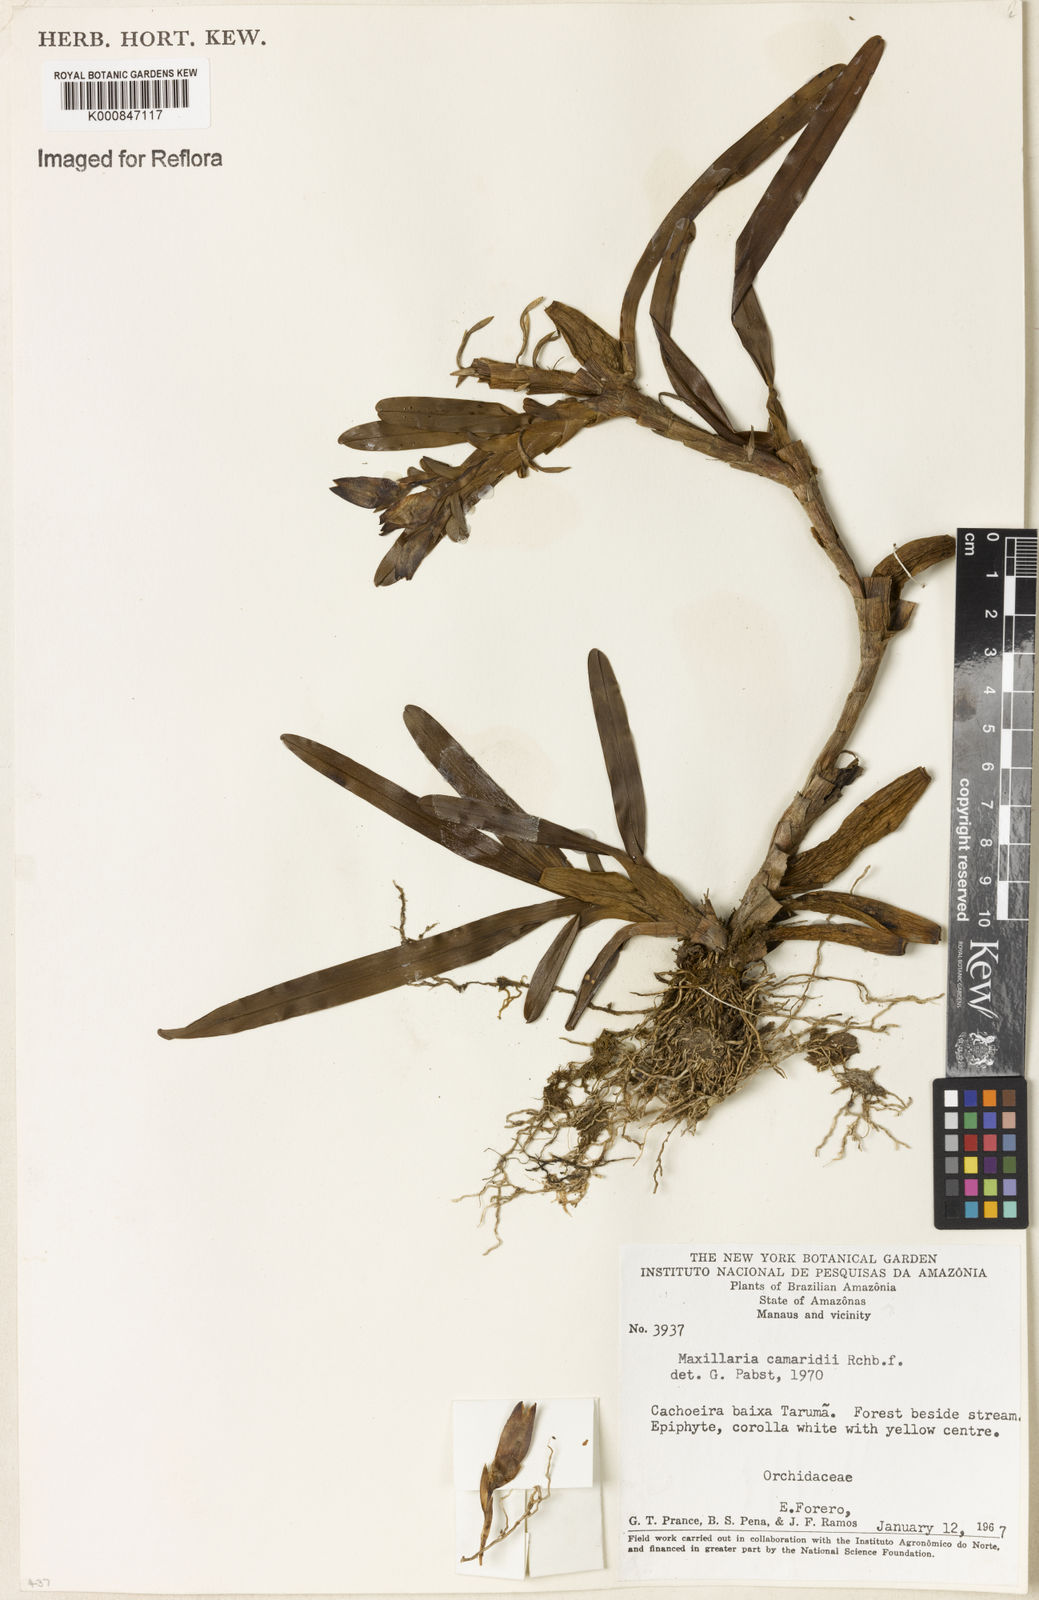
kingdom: Plantae
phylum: Tracheophyta
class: Liliopsida
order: Asparagales
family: Orchidaceae
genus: Maxillaria
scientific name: Maxillaria lutescens
